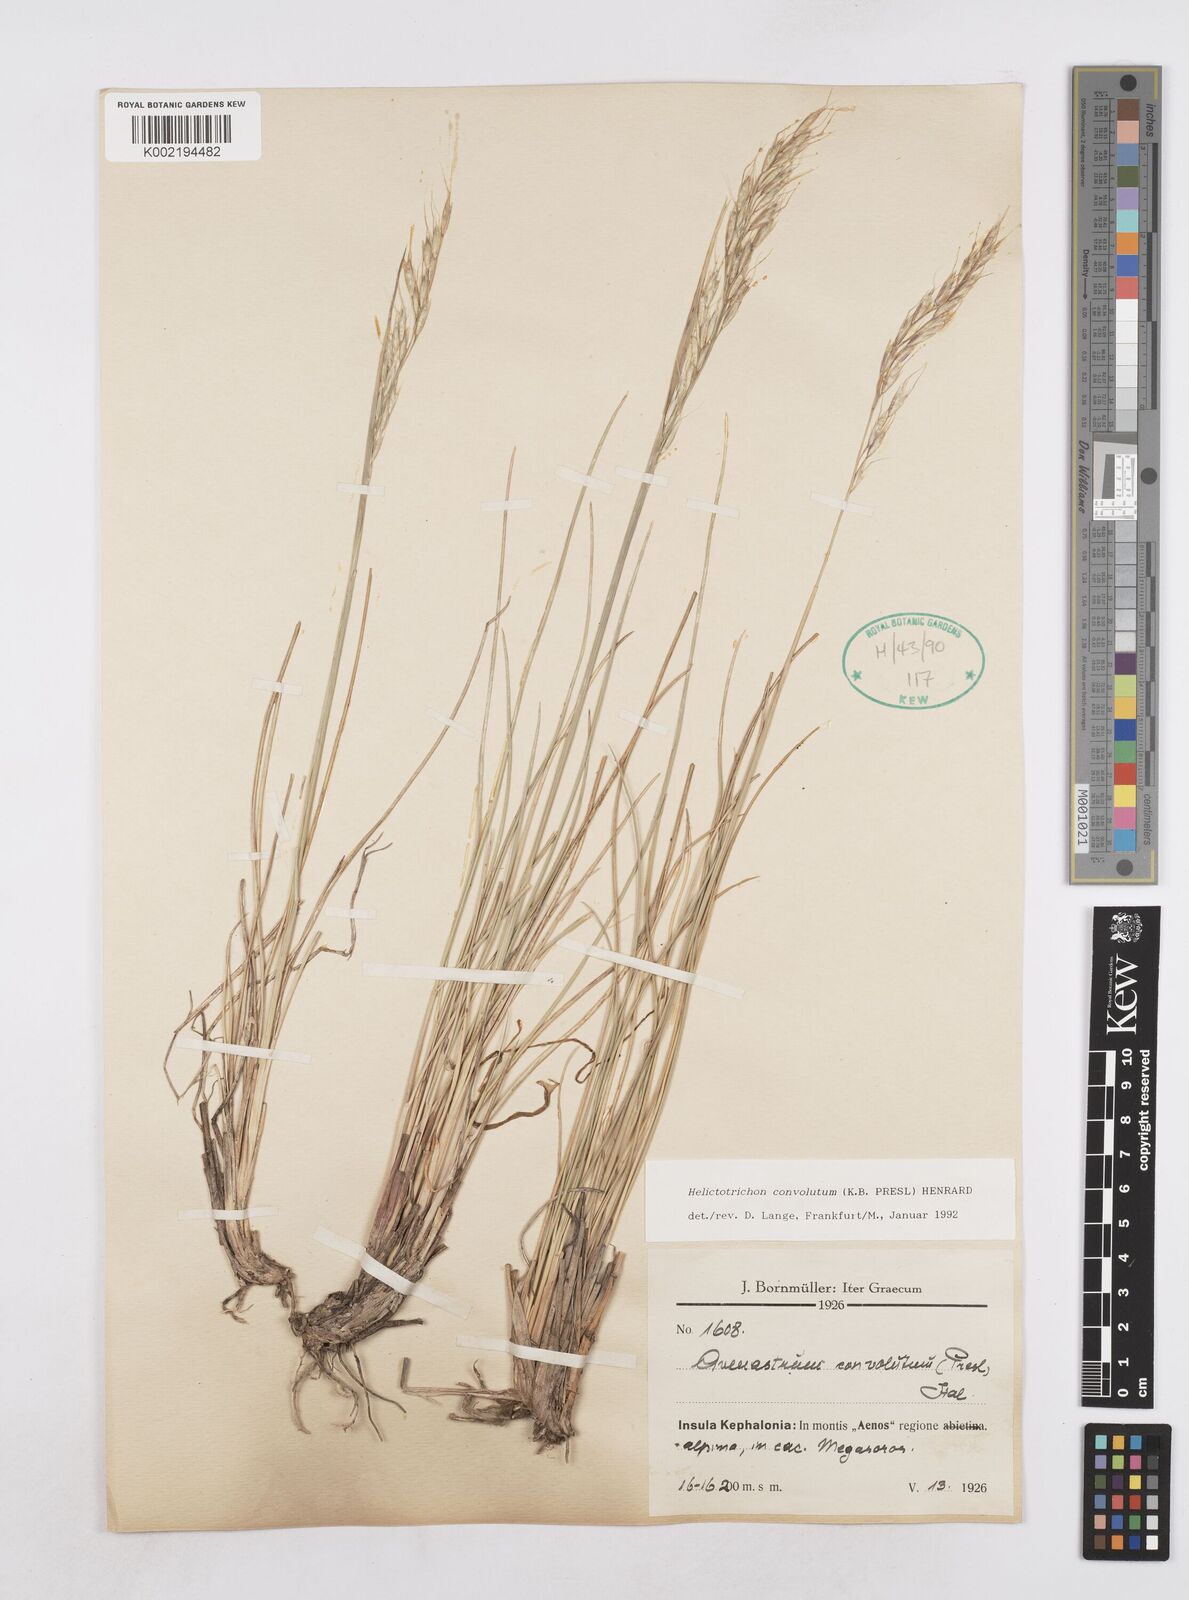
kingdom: Plantae
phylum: Tracheophyta
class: Liliopsida
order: Poales
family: Poaceae
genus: Helictotrichon
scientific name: Helictotrichon convolutum
